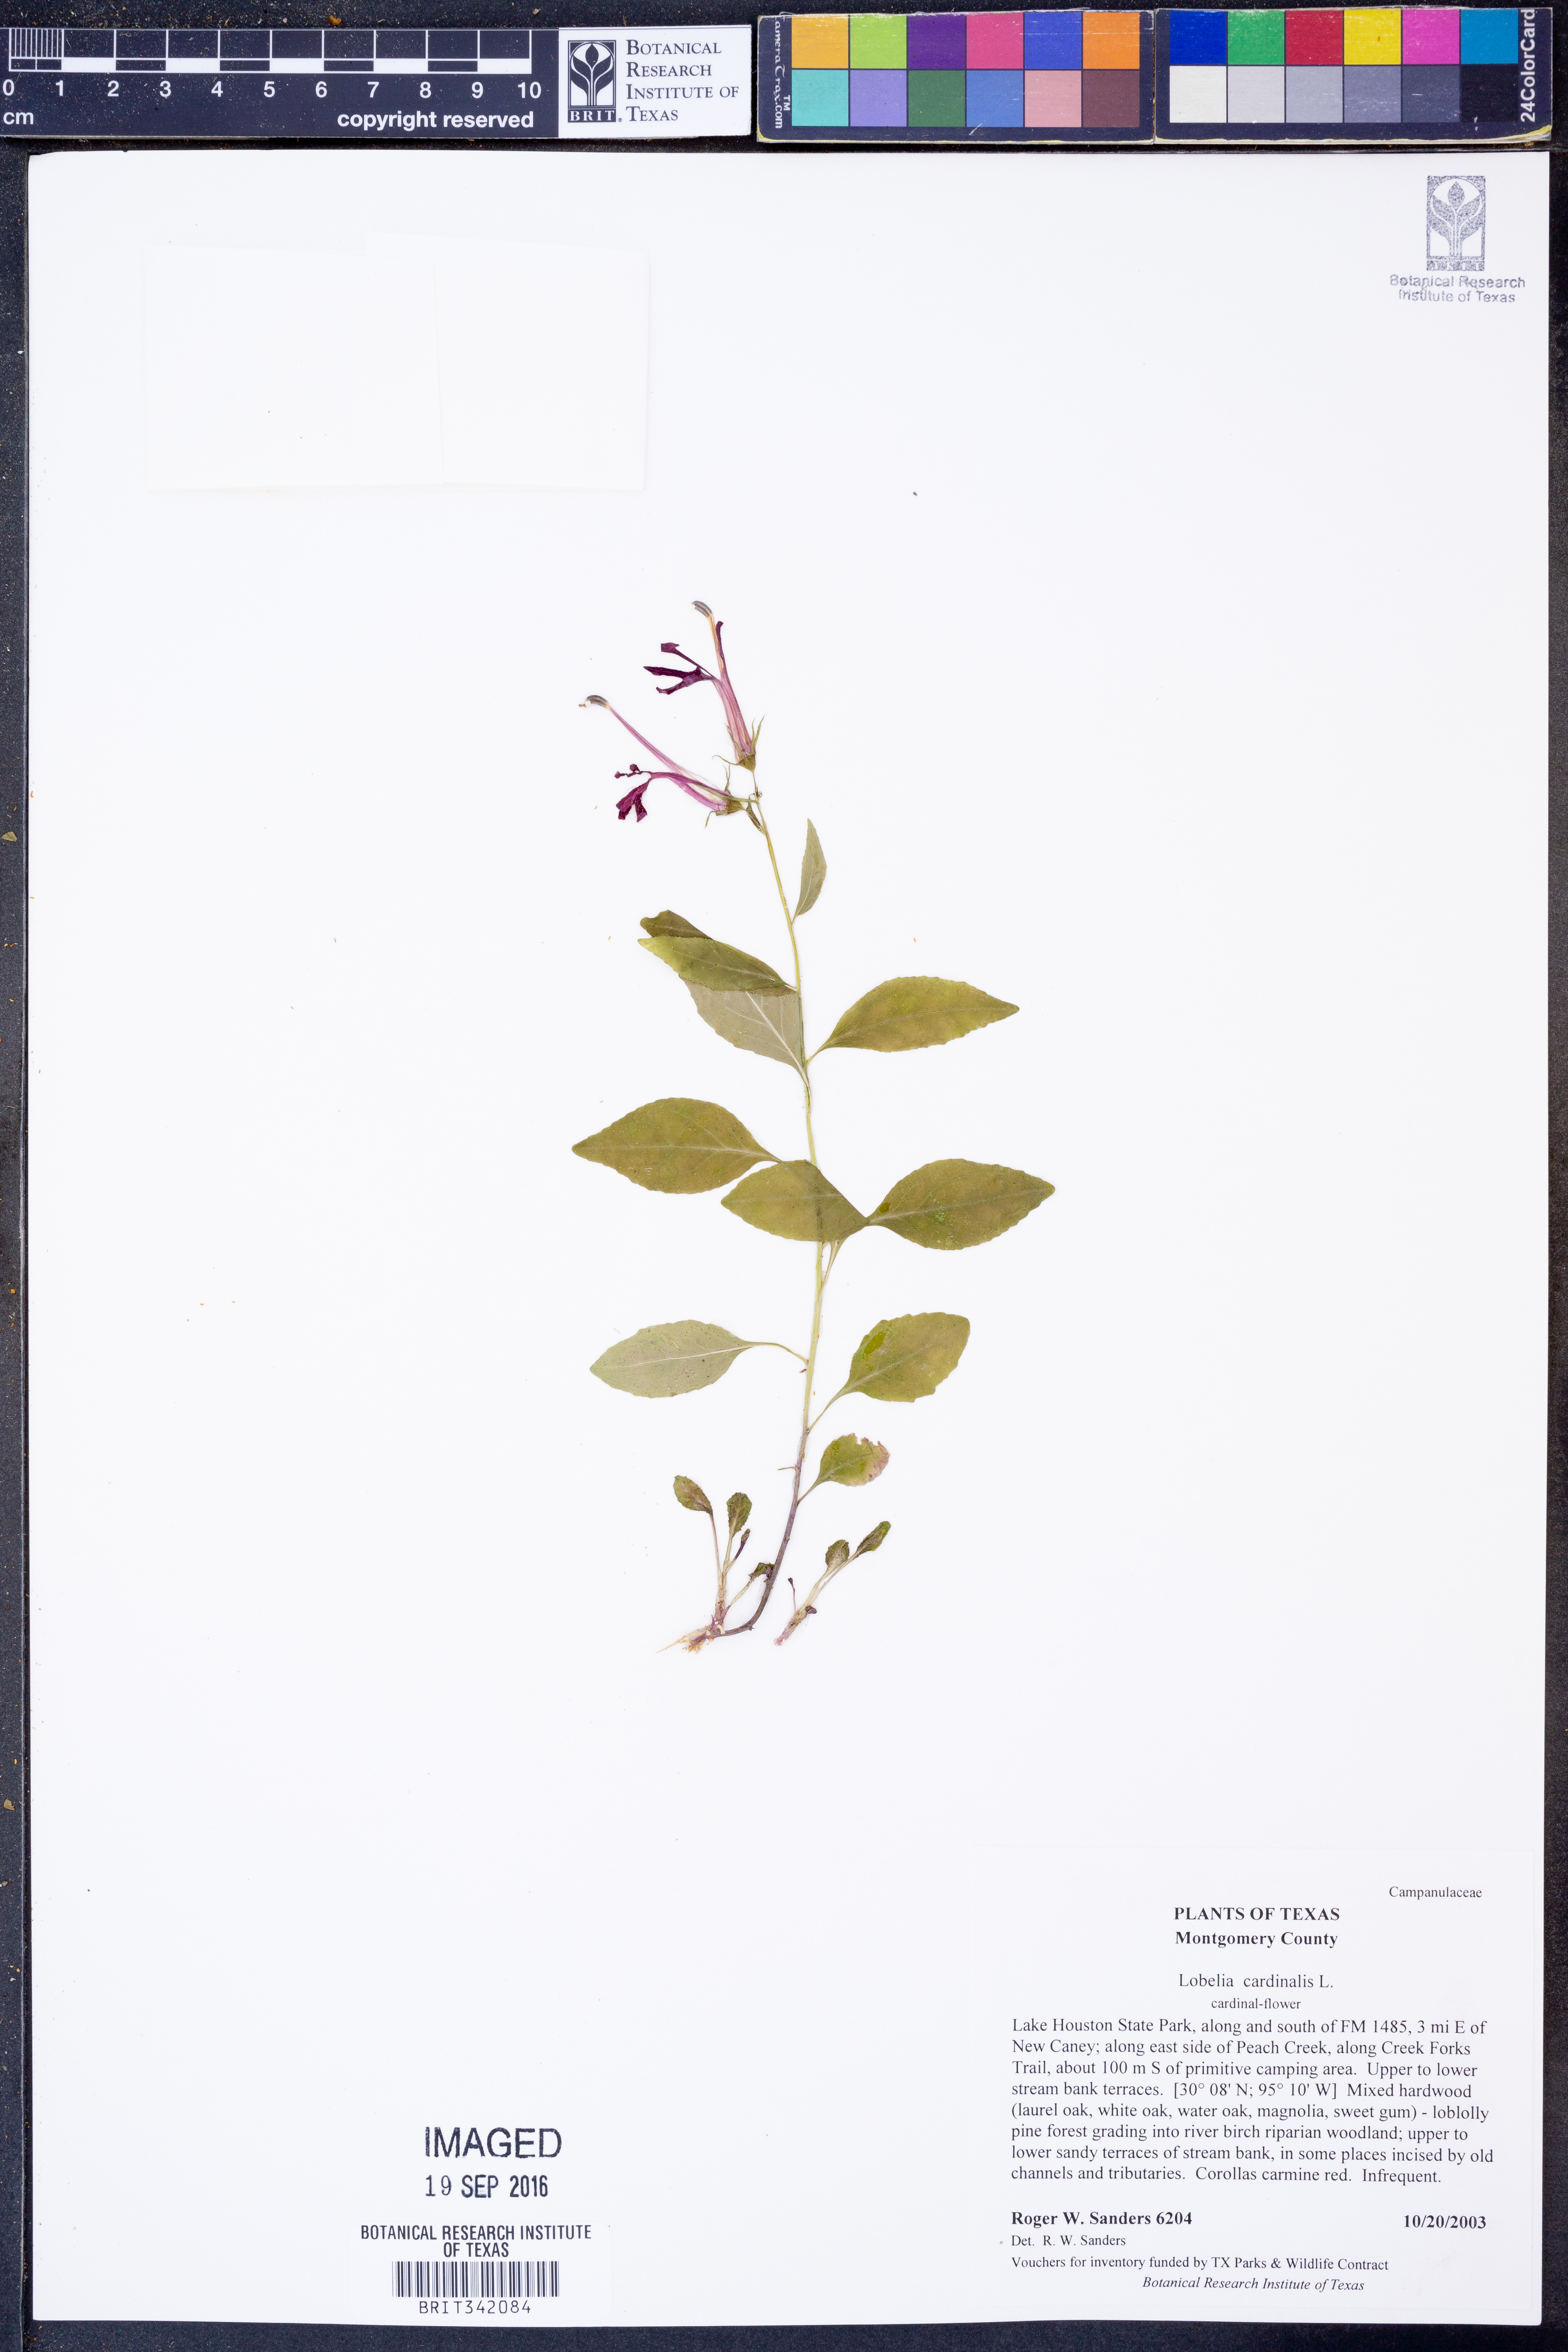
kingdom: Plantae
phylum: Tracheophyta
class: Magnoliopsida
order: Asterales
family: Campanulaceae
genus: Lobelia
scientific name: Lobelia cardinalis
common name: Cardinal flower
